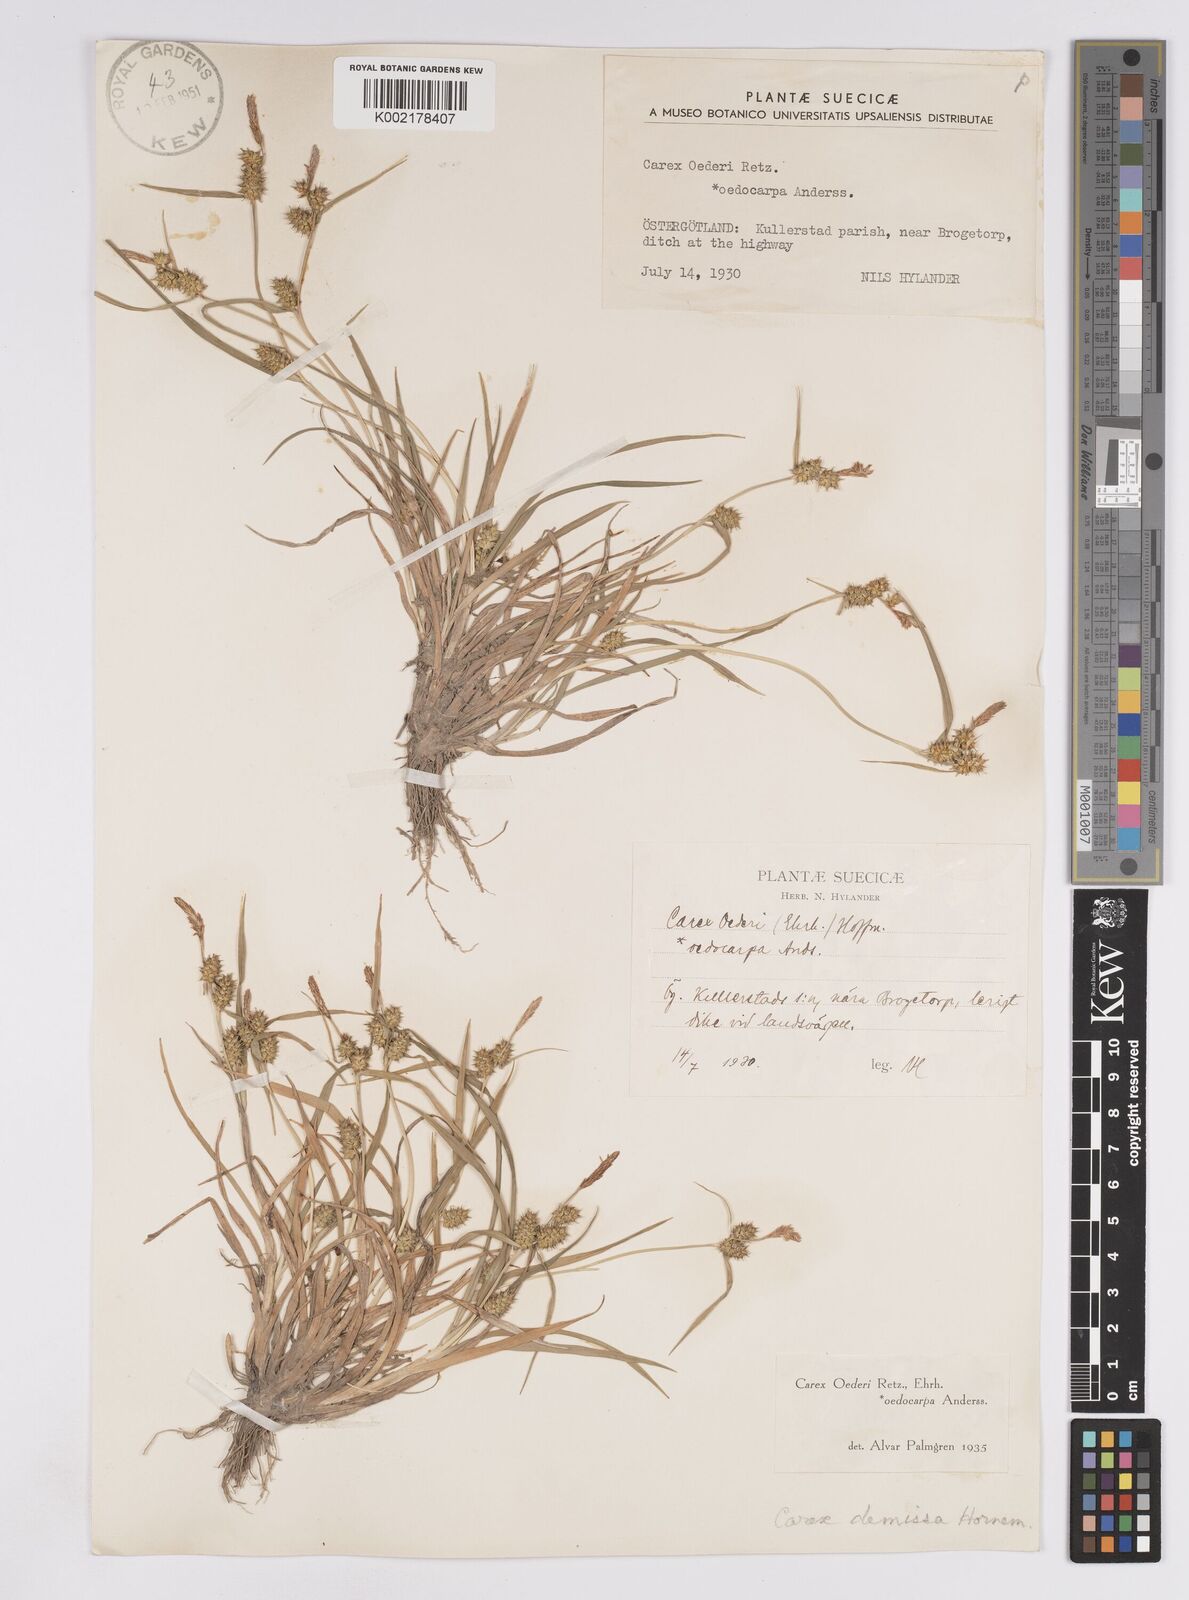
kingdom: Plantae
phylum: Tracheophyta
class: Liliopsida
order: Poales
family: Cyperaceae
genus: Carex
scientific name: Carex demissa
